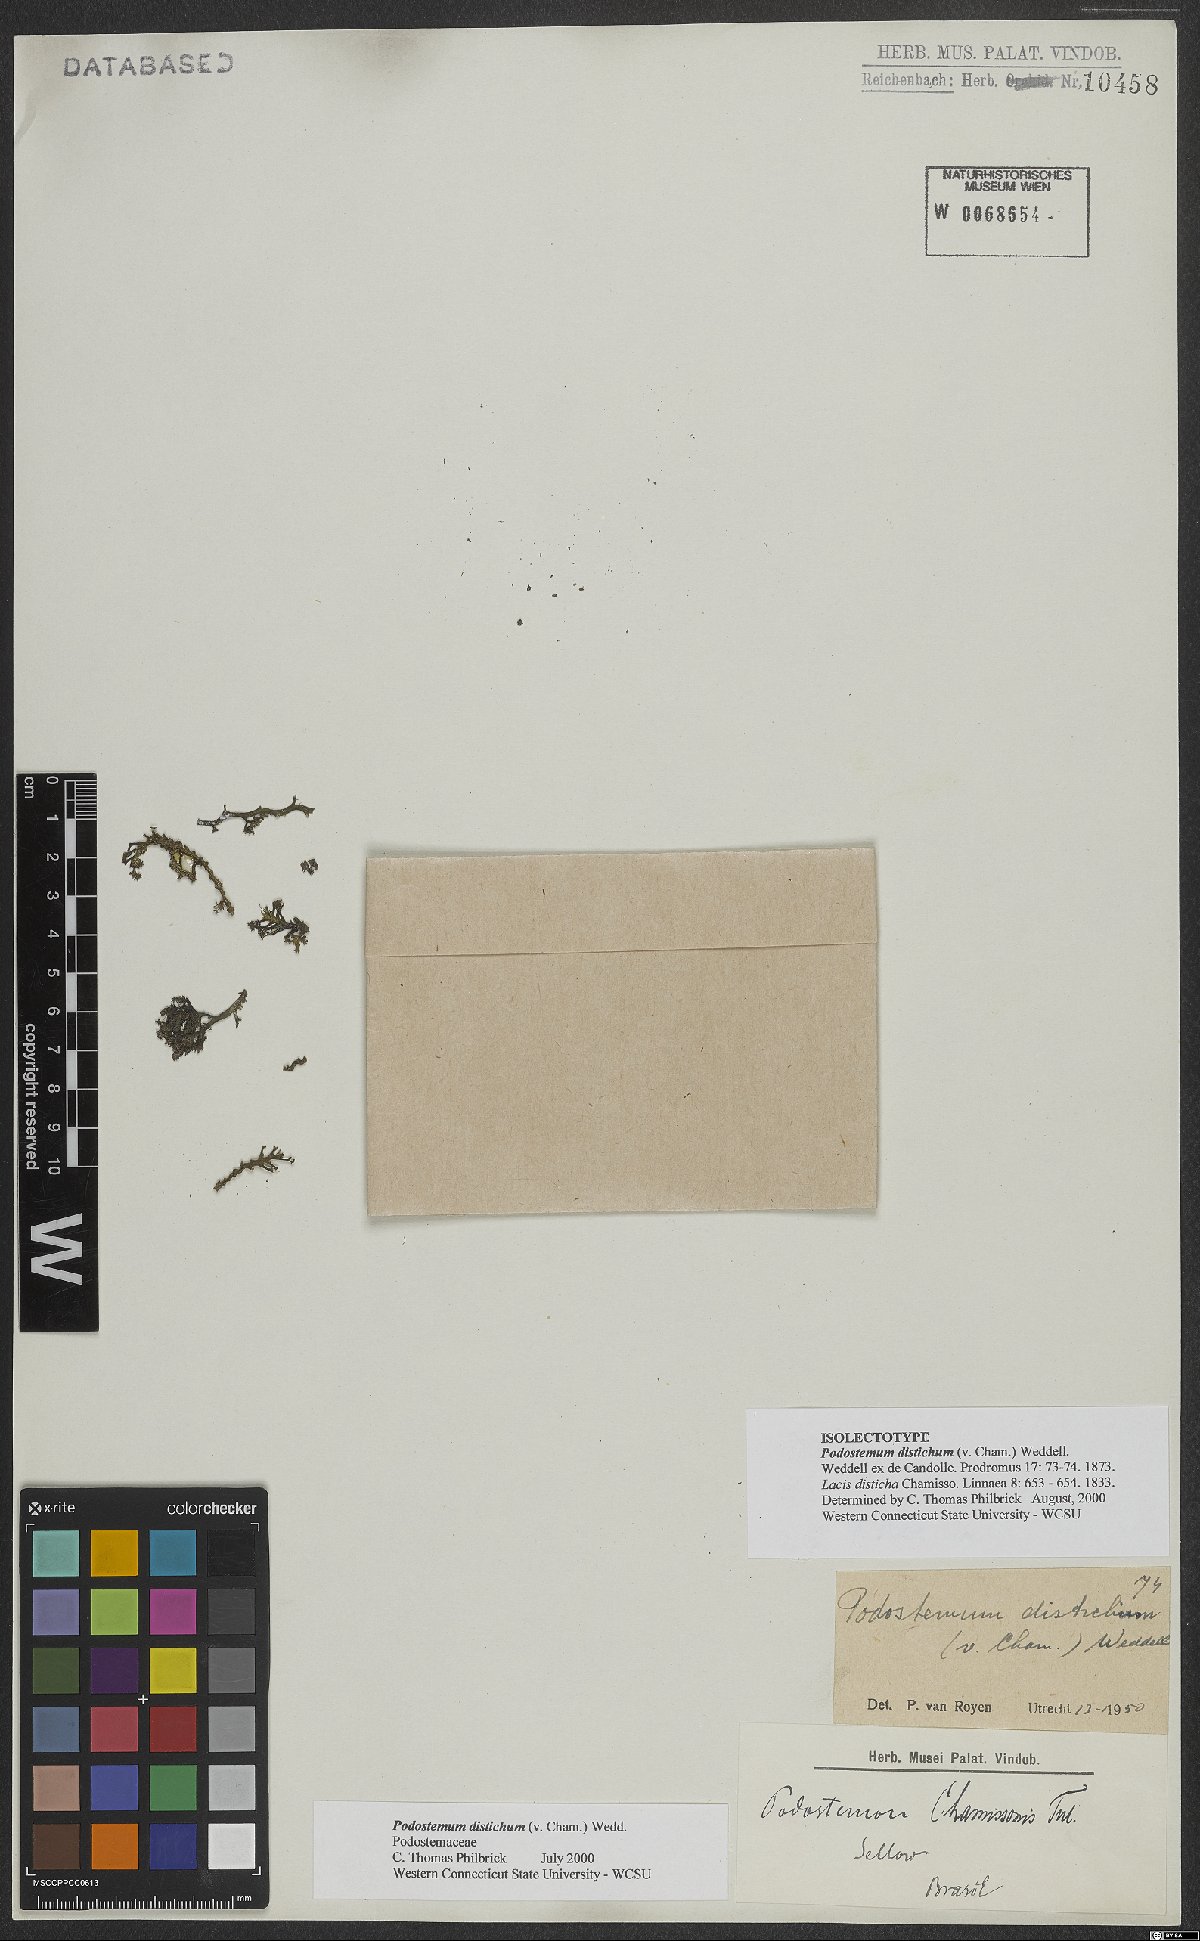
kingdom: Plantae
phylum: Tracheophyta
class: Magnoliopsida
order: Malpighiales
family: Podostemaceae
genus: Podostemum
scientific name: Podostemum distichum
